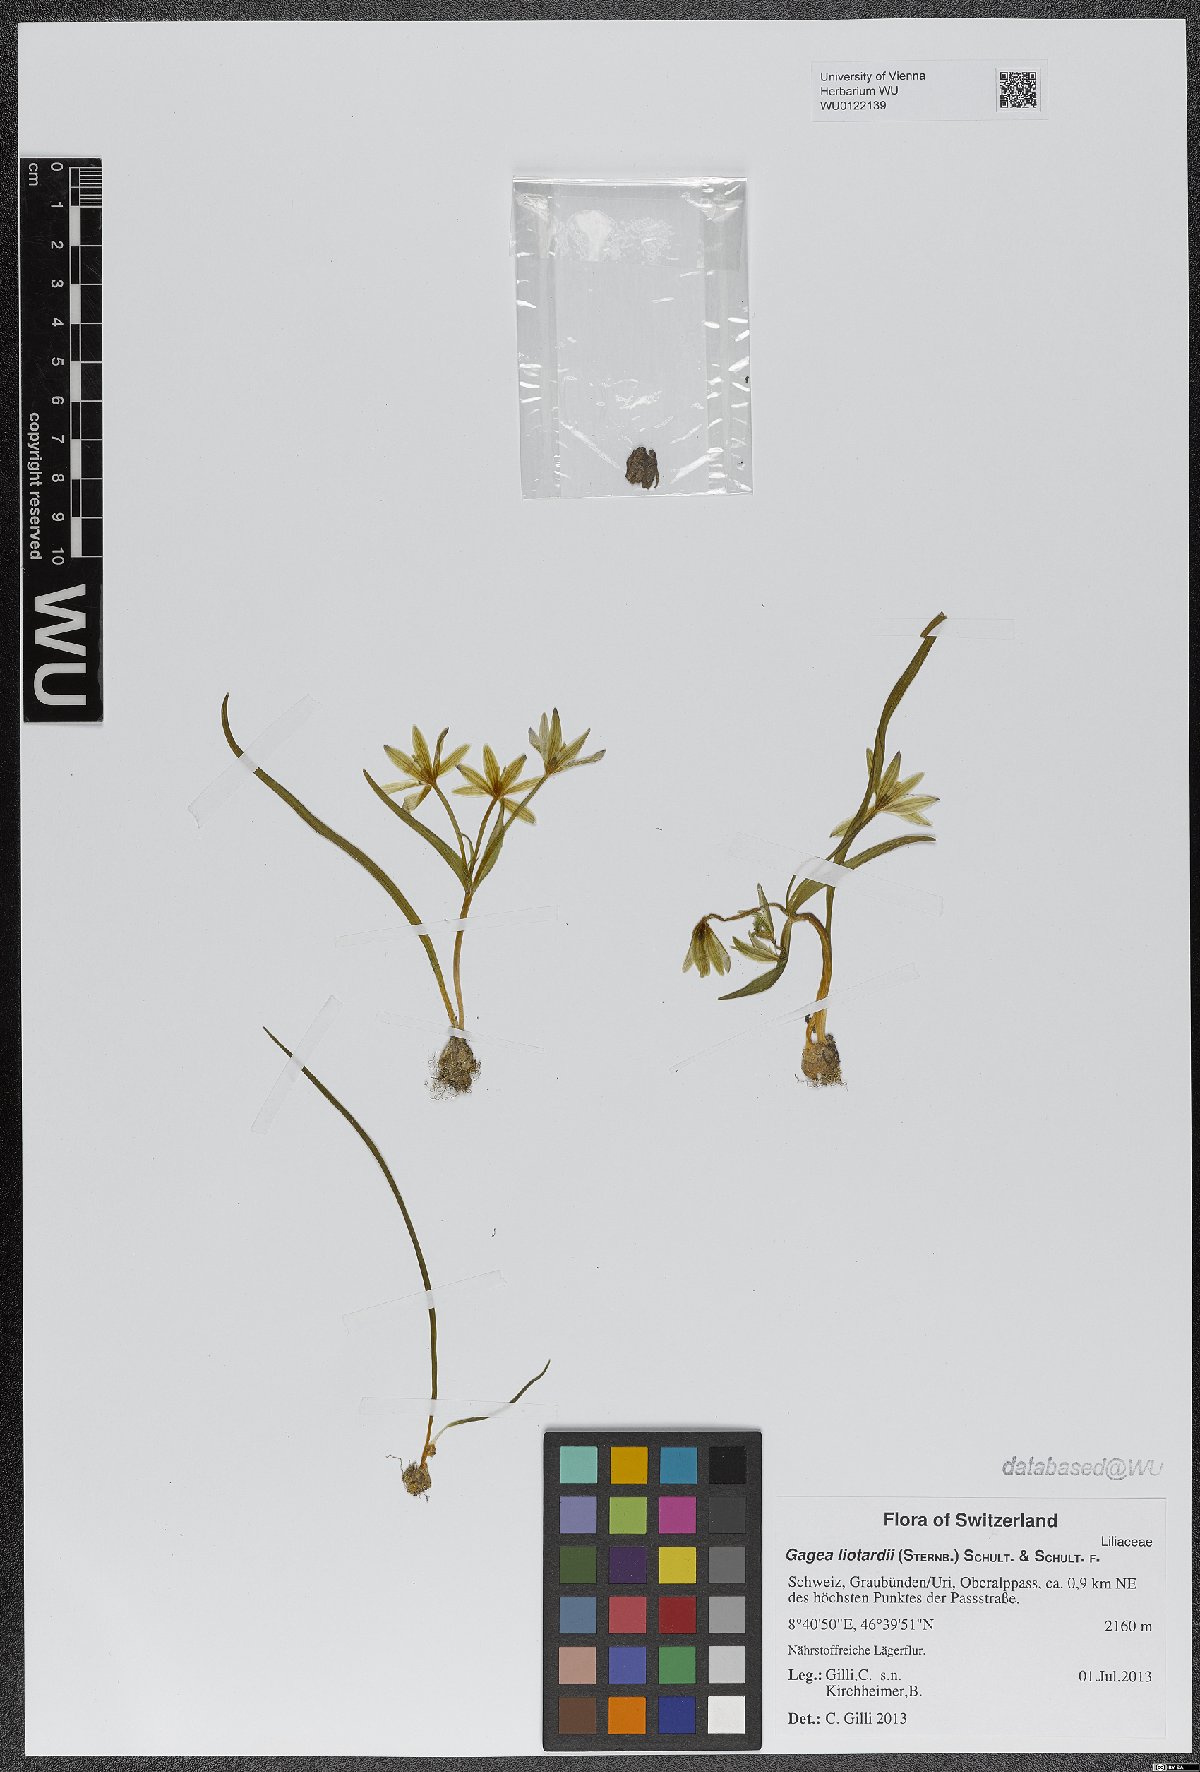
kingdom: Plantae
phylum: Tracheophyta
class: Liliopsida
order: Liliales
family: Liliaceae
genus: Gagea
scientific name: Gagea fragifera
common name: Lily
